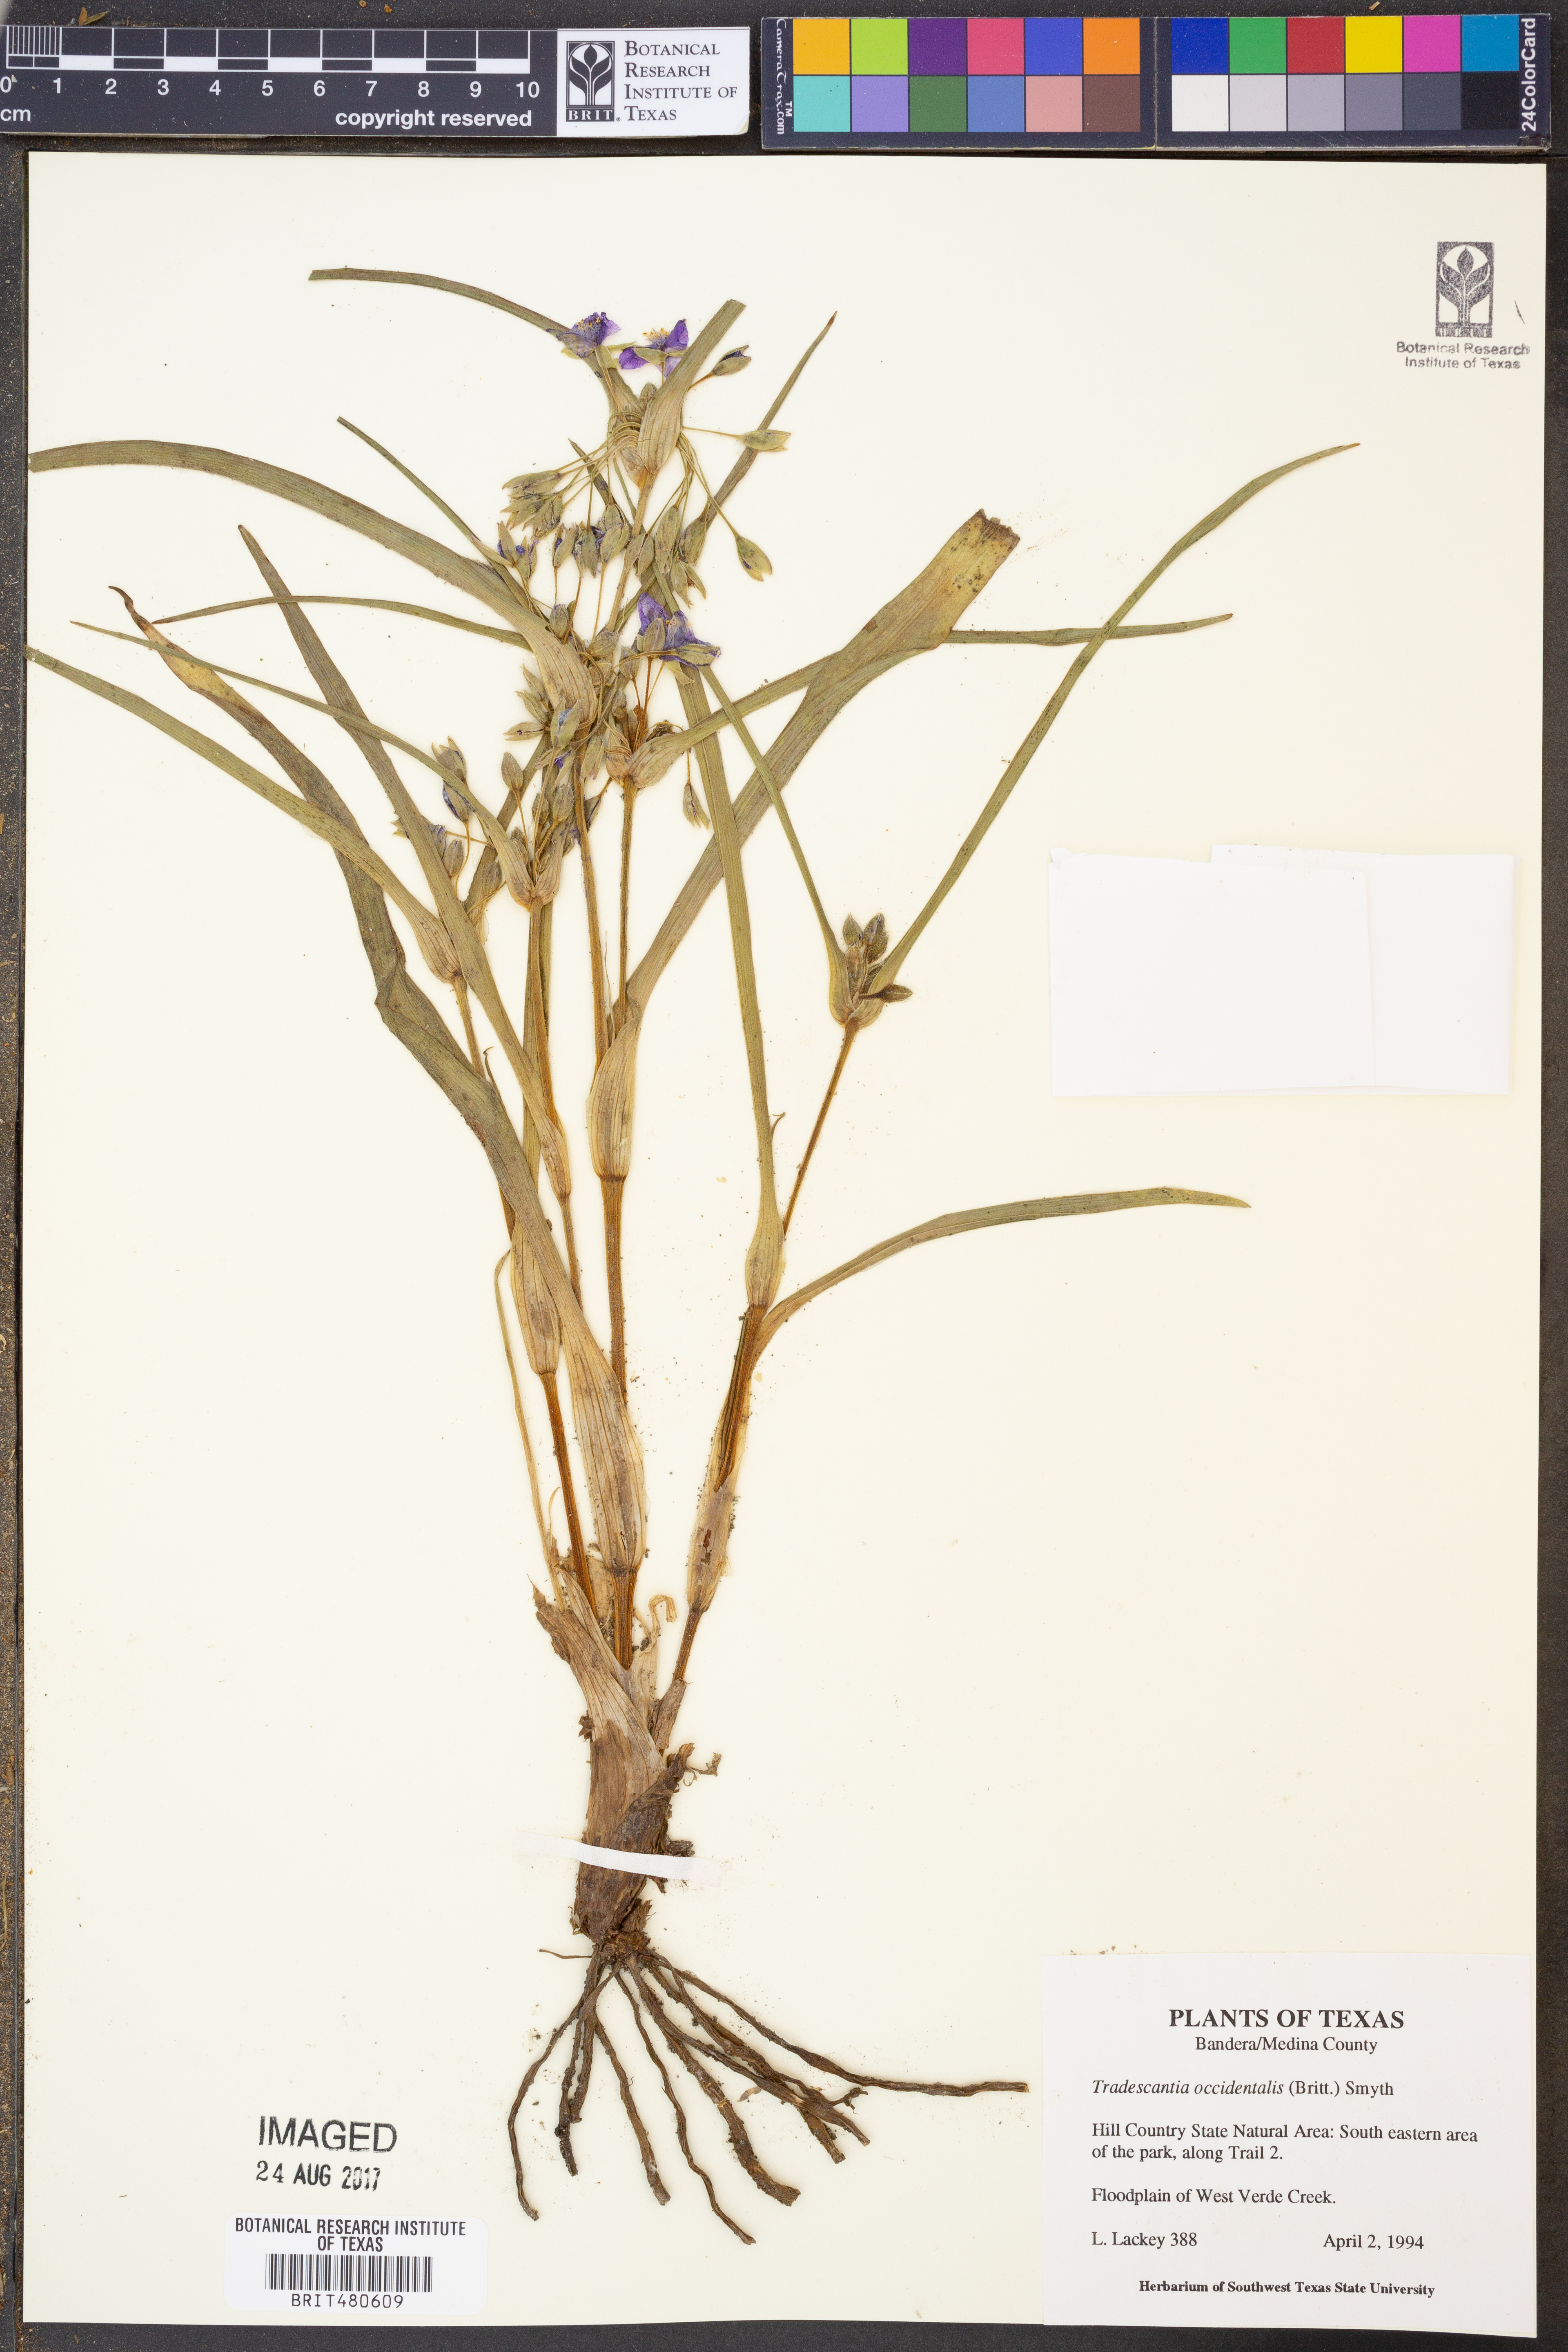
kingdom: Plantae
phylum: Tracheophyta
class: Liliopsida
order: Commelinales
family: Commelinaceae
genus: Tradescantia
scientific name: Tradescantia occidentalis
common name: Prairie spiderwort
